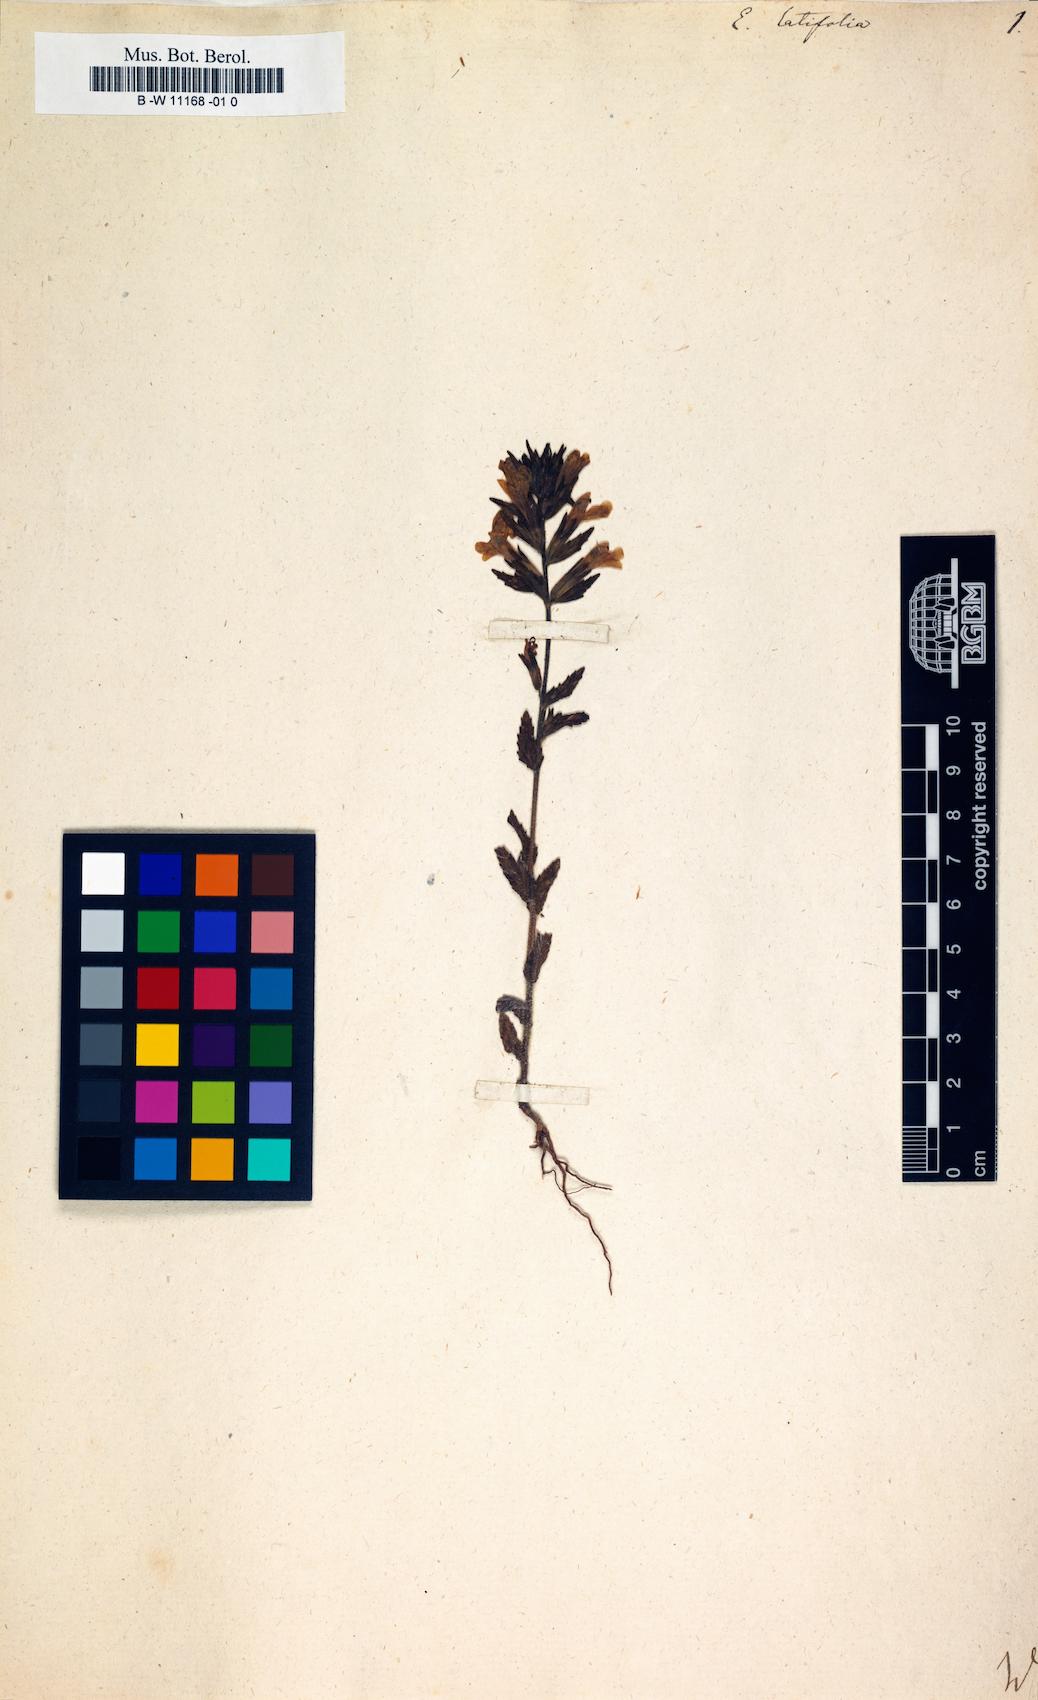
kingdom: Plantae
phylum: Tracheophyta
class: Magnoliopsida
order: Lamiales
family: Orobanchaceae
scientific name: Orobanchaceae
